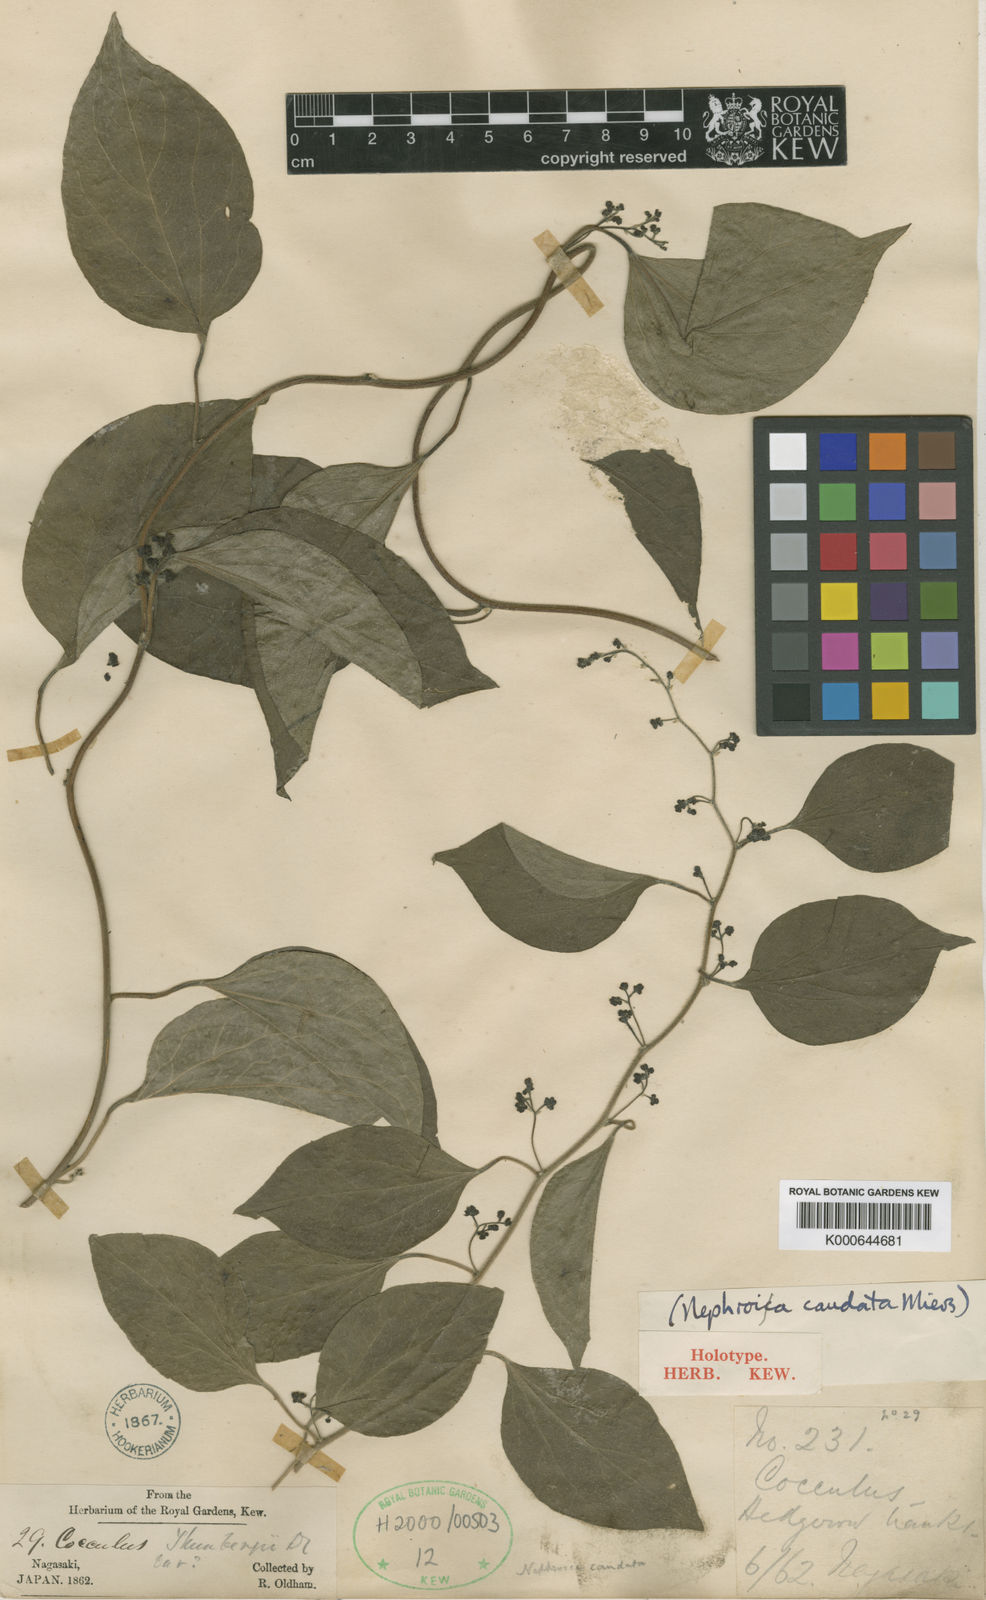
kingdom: Plantae
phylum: Tracheophyta
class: Magnoliopsida
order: Ranunculales
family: Menispermaceae
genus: Cocculus
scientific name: Cocculus orbiculatus
